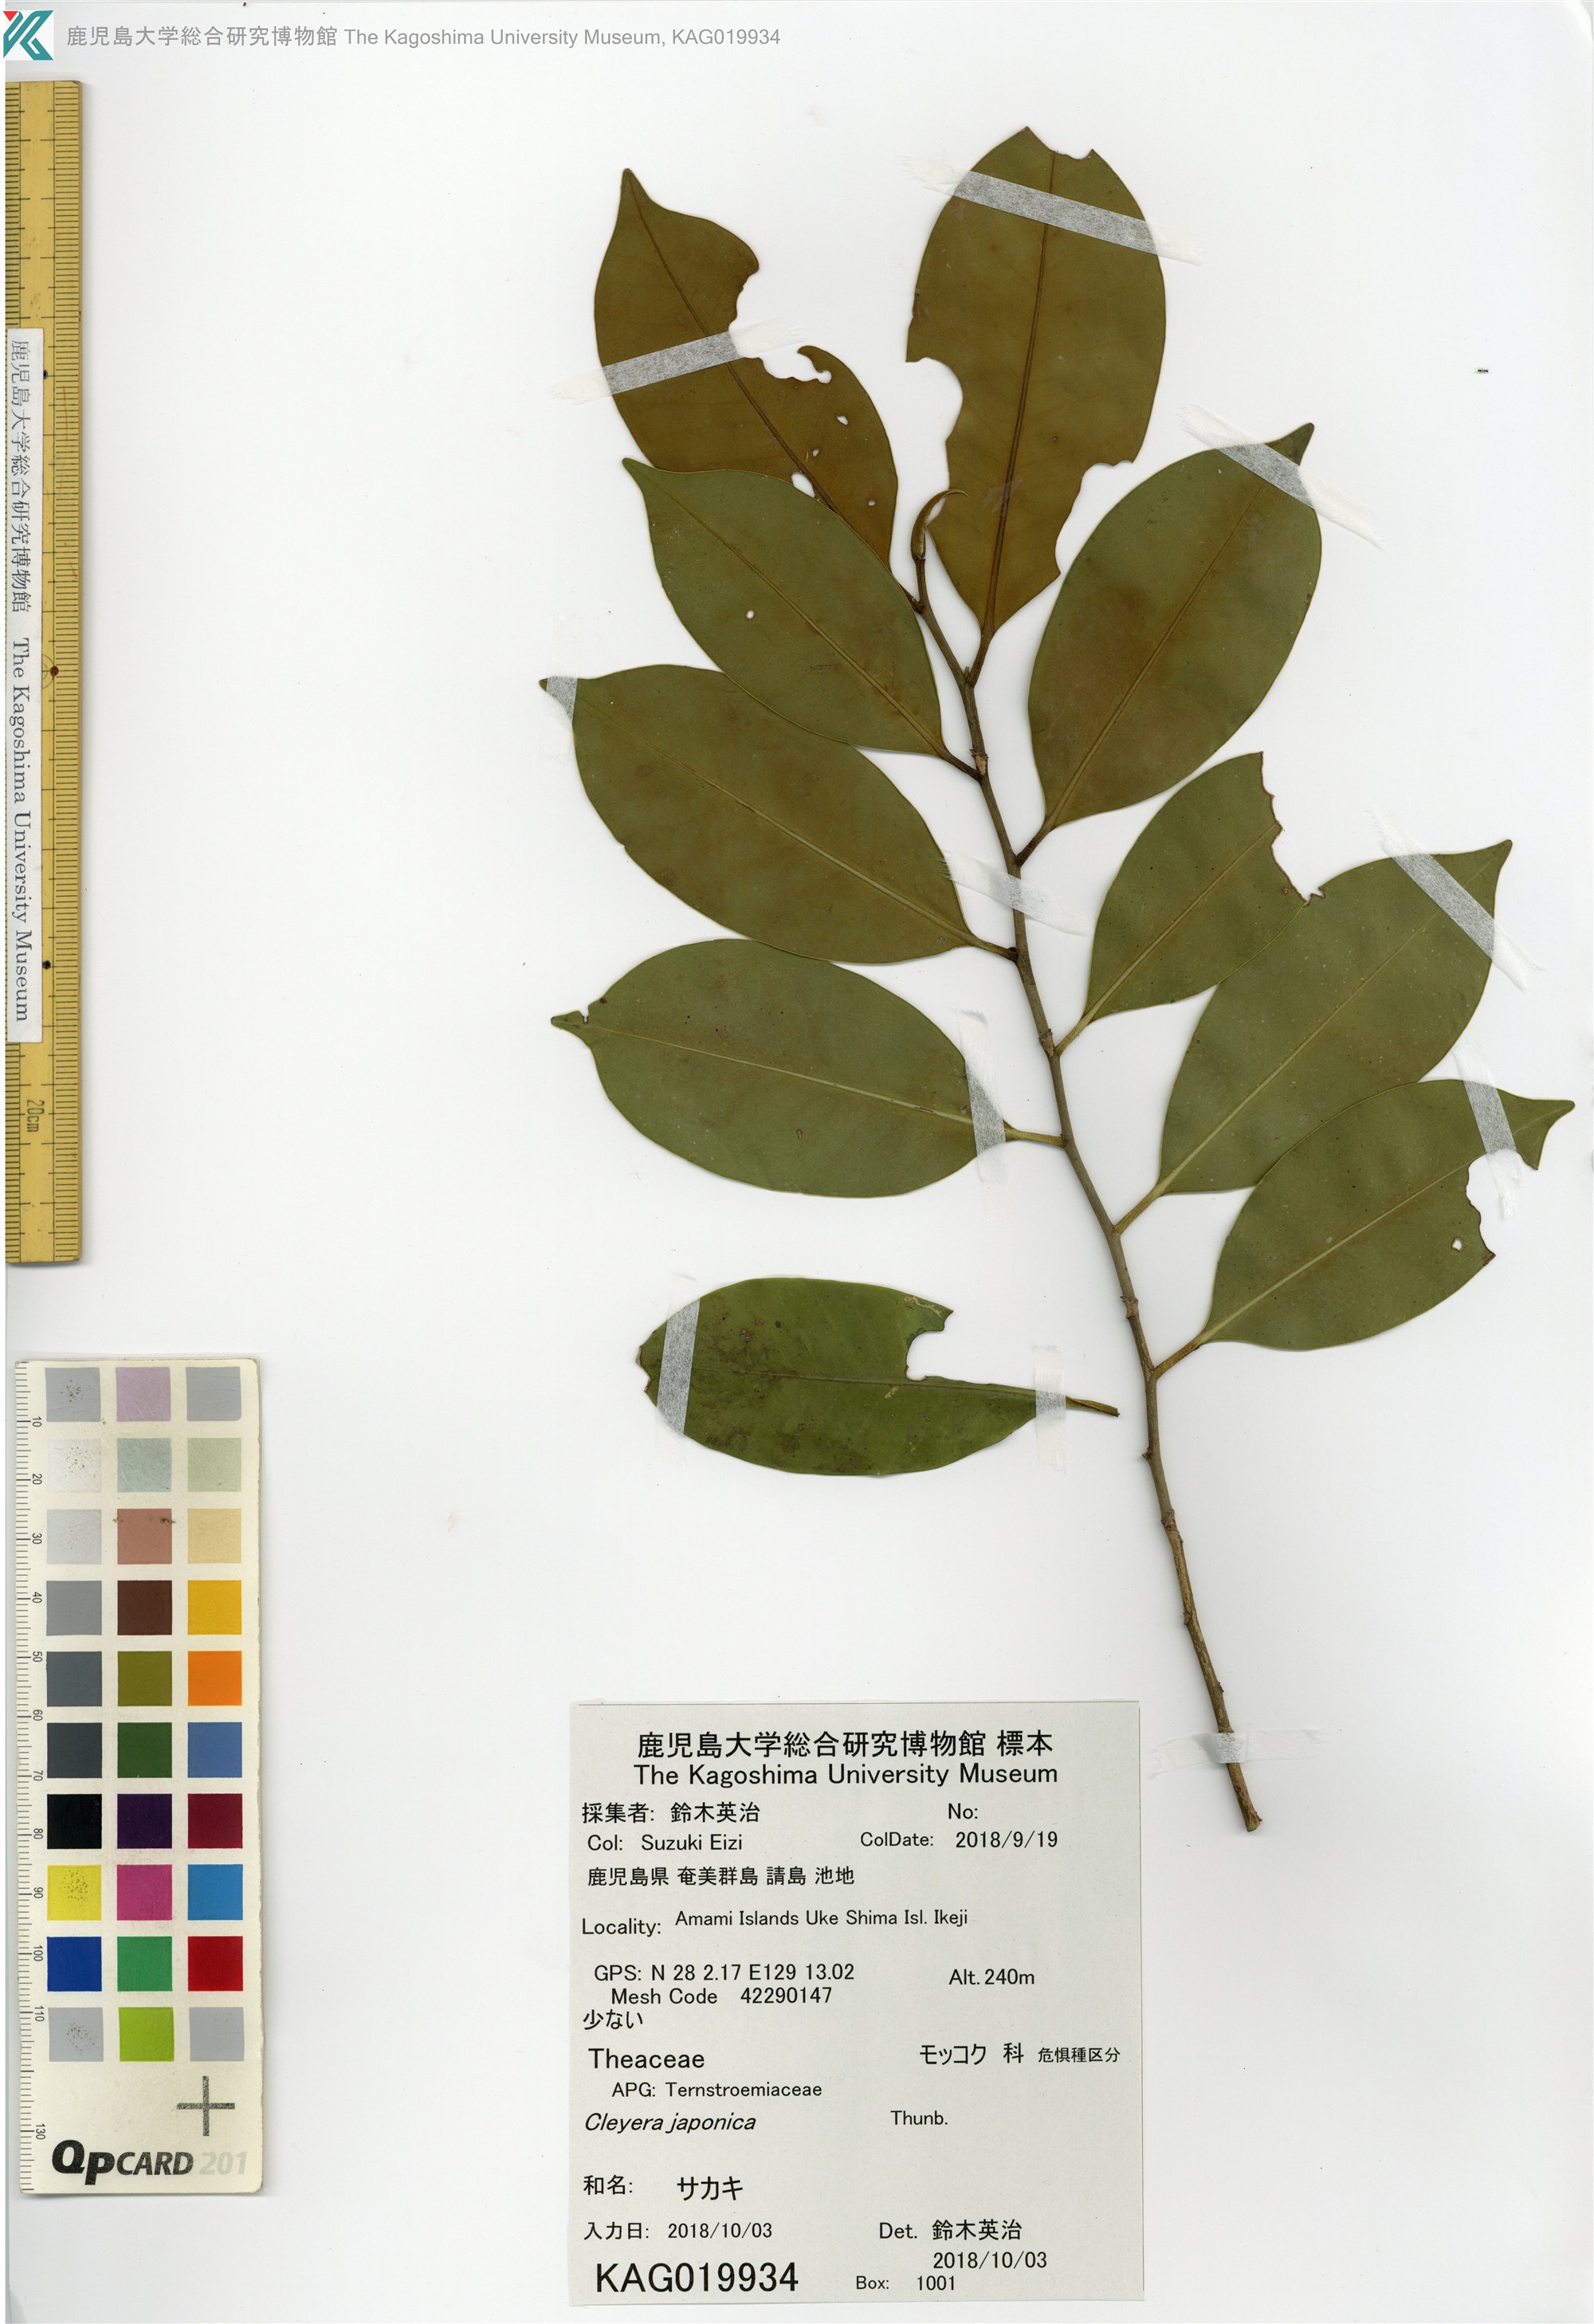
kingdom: Plantae
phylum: Tracheophyta
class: Magnoliopsida
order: Ericales
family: Pentaphylacaceae
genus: Cleyera
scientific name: Cleyera japonica
